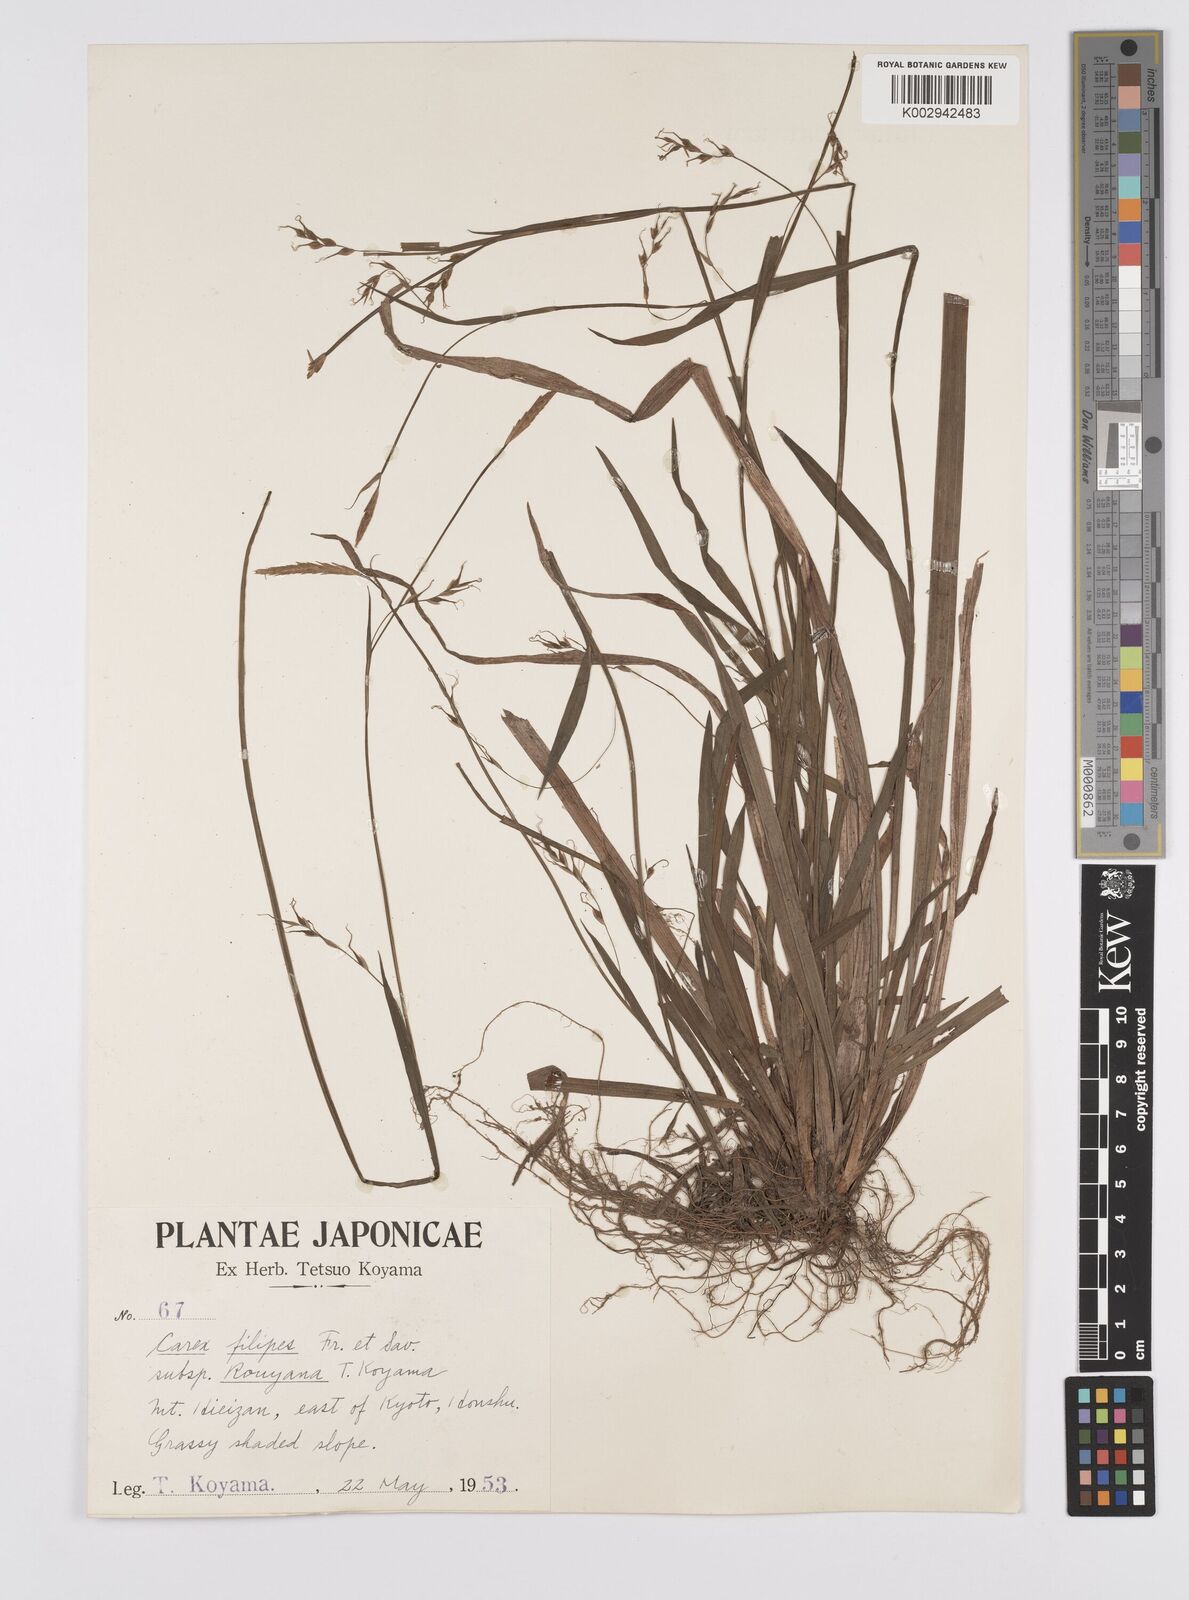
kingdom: Plantae
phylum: Tracheophyta
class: Liliopsida
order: Poales
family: Cyperaceae
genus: Carex
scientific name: Carex filipes
